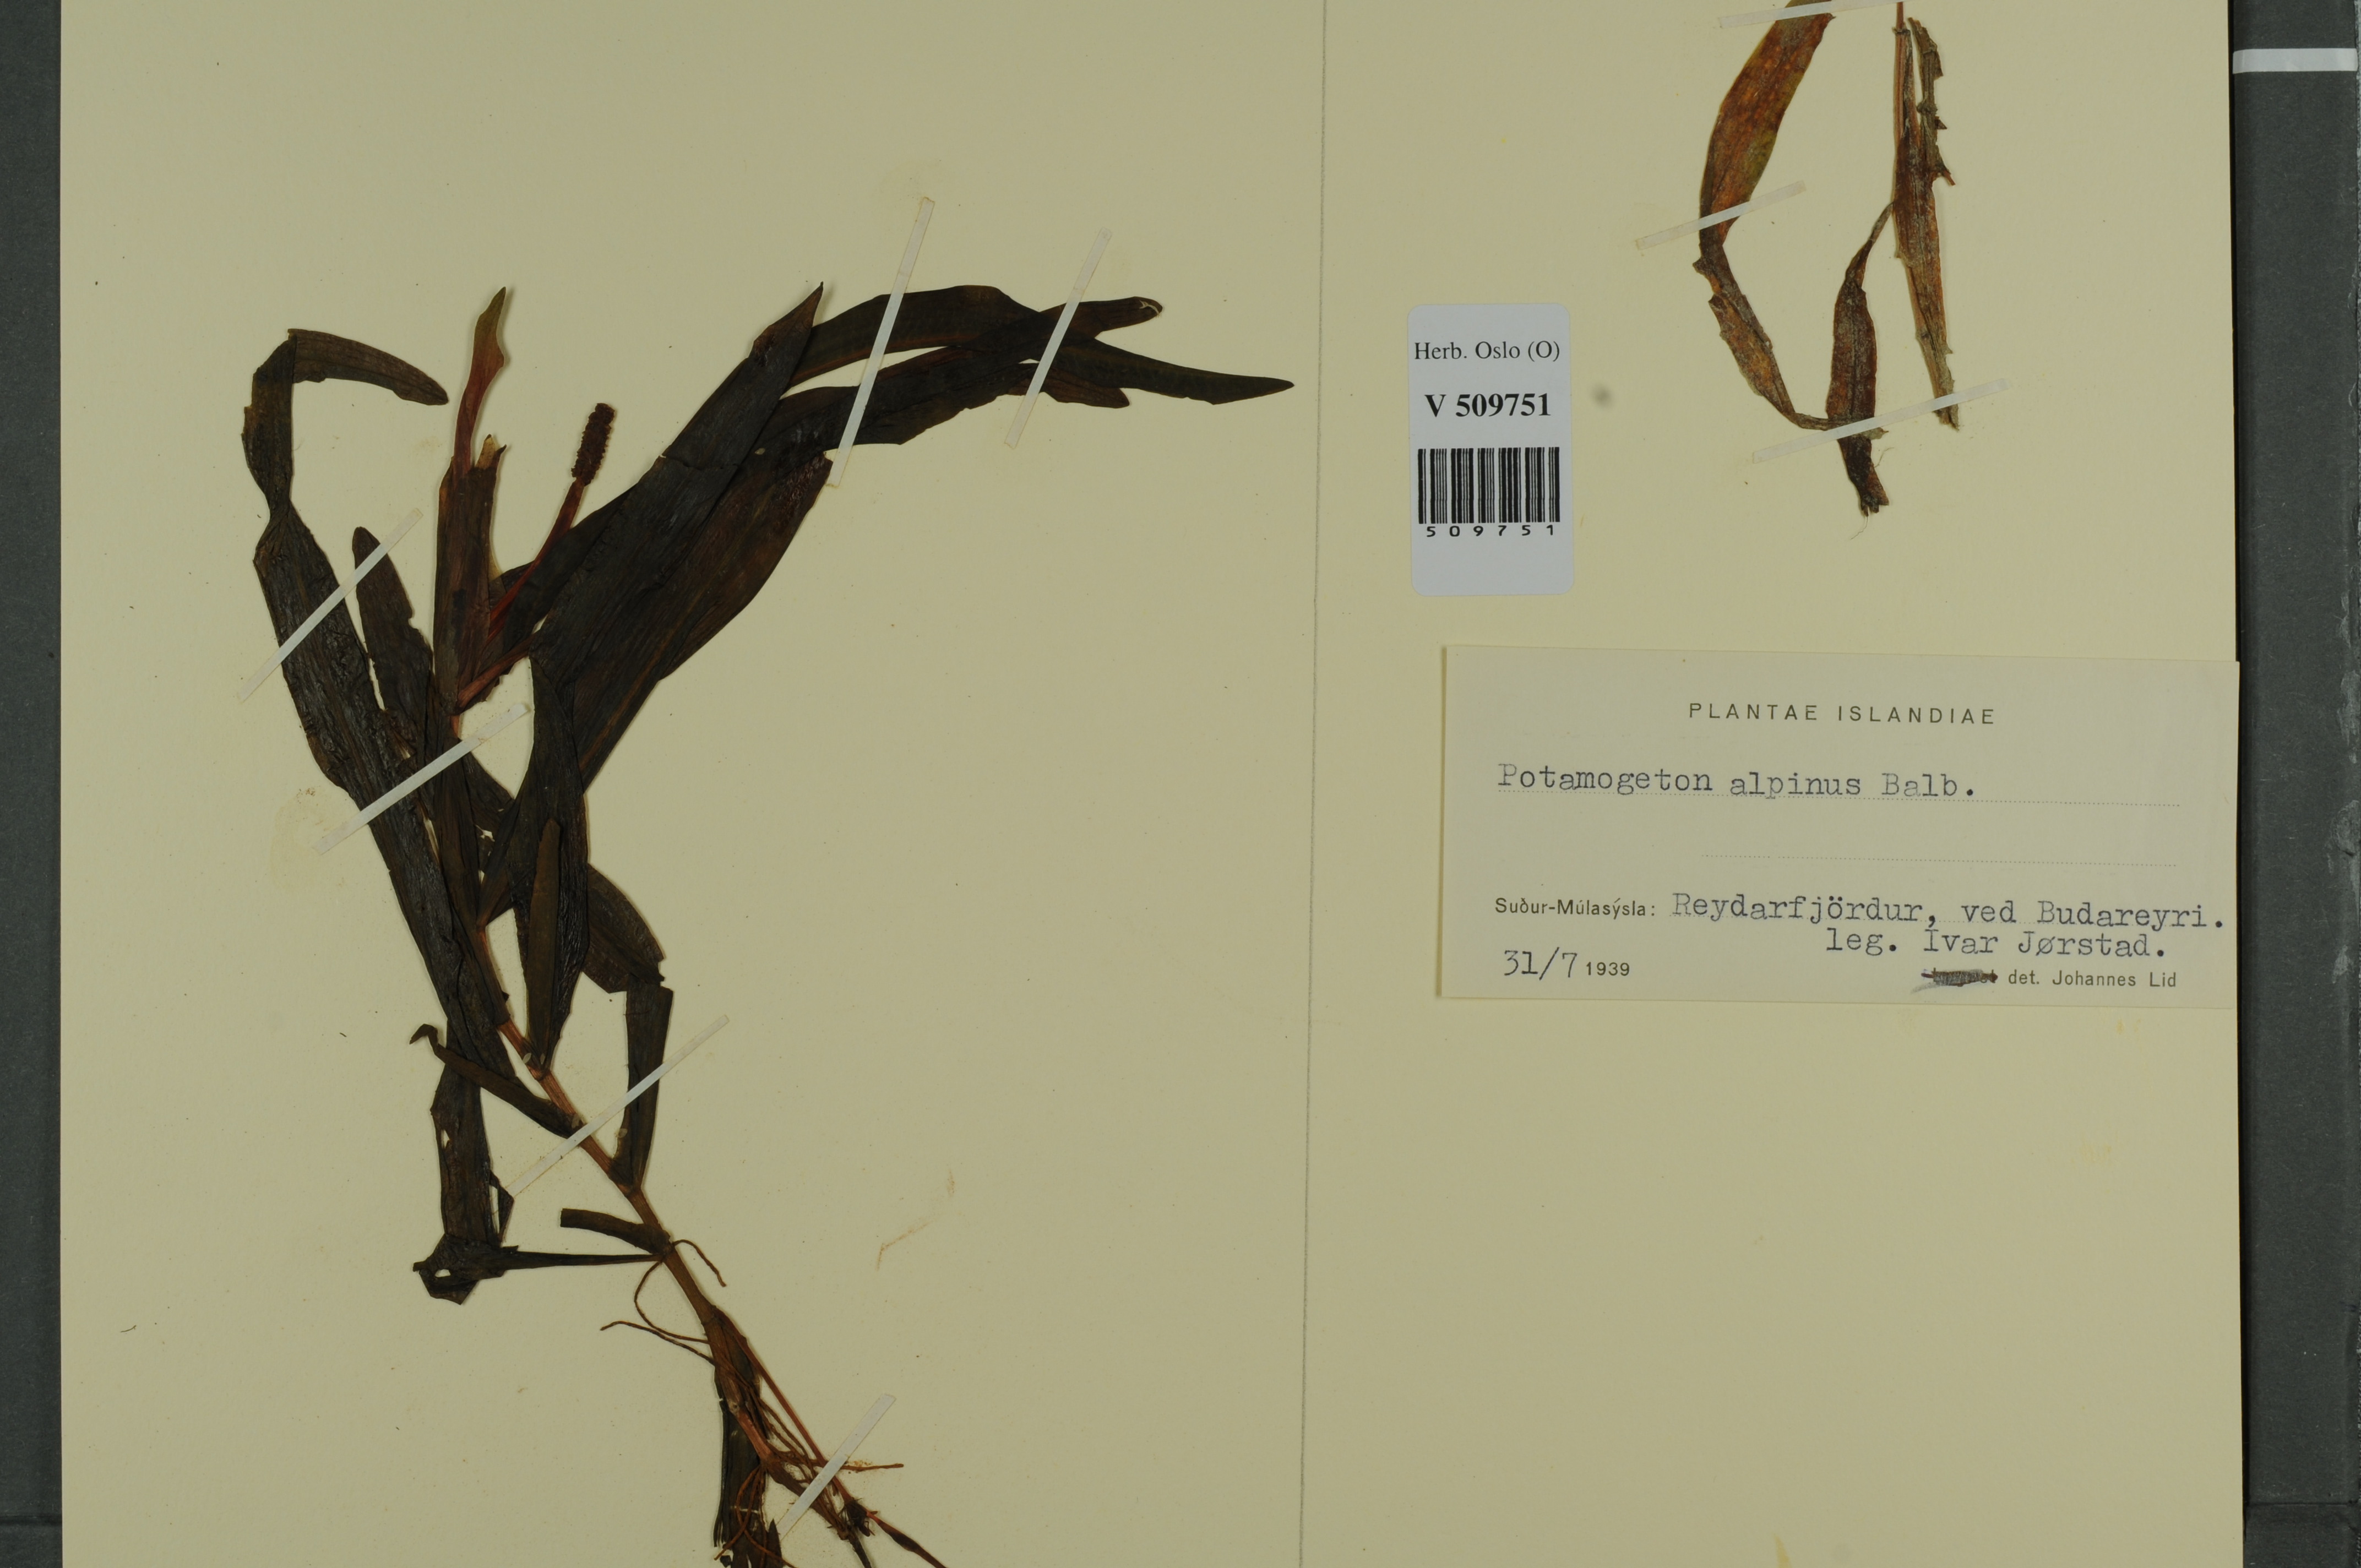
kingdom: Plantae
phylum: Tracheophyta
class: Liliopsida
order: Alismatales
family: Potamogetonaceae
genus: Potamogeton
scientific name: Potamogeton alpinus
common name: Red pondweed
